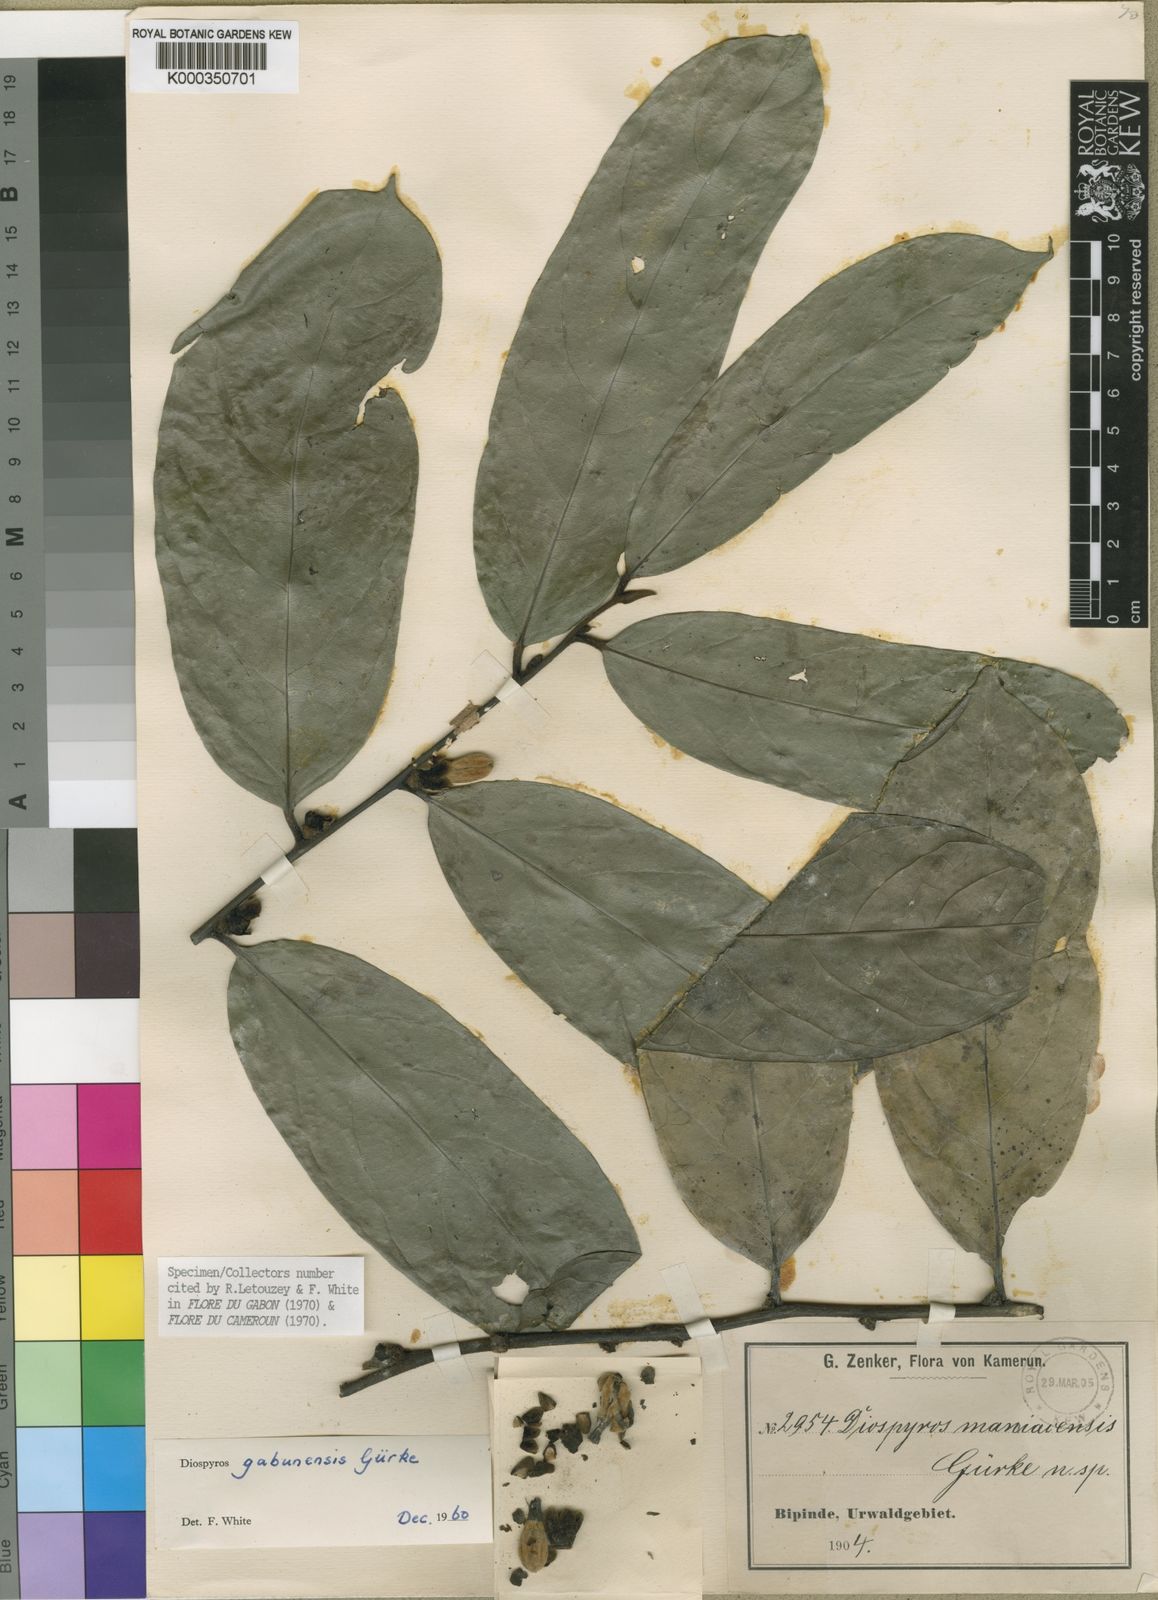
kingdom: Plantae
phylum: Tracheophyta
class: Magnoliopsida
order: Ericales
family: Ebenaceae
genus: Diospyros
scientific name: Diospyros
